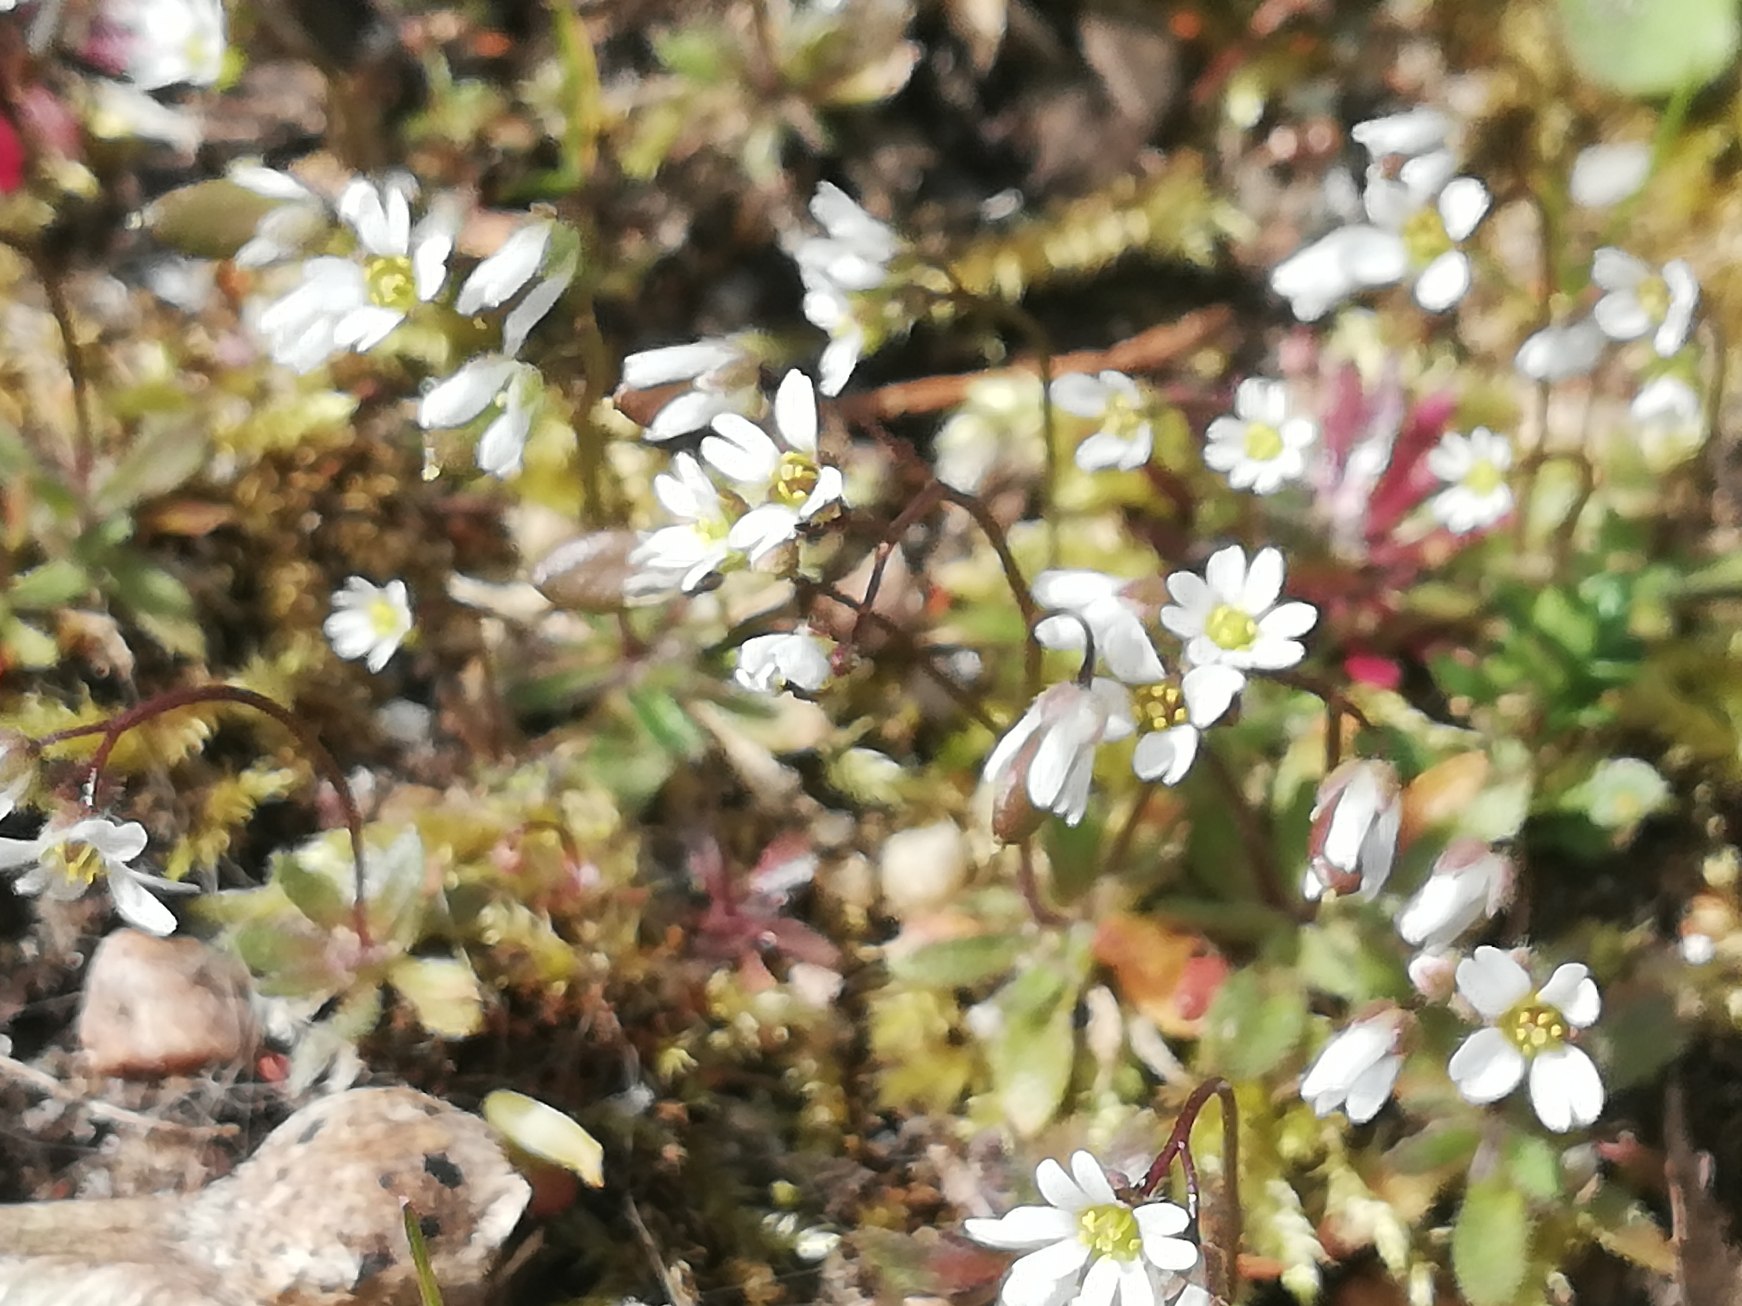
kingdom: Plantae
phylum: Tracheophyta
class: Magnoliopsida
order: Brassicales
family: Brassicaceae
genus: Draba
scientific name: Draba verna
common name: Vår-gæslingeblomst
